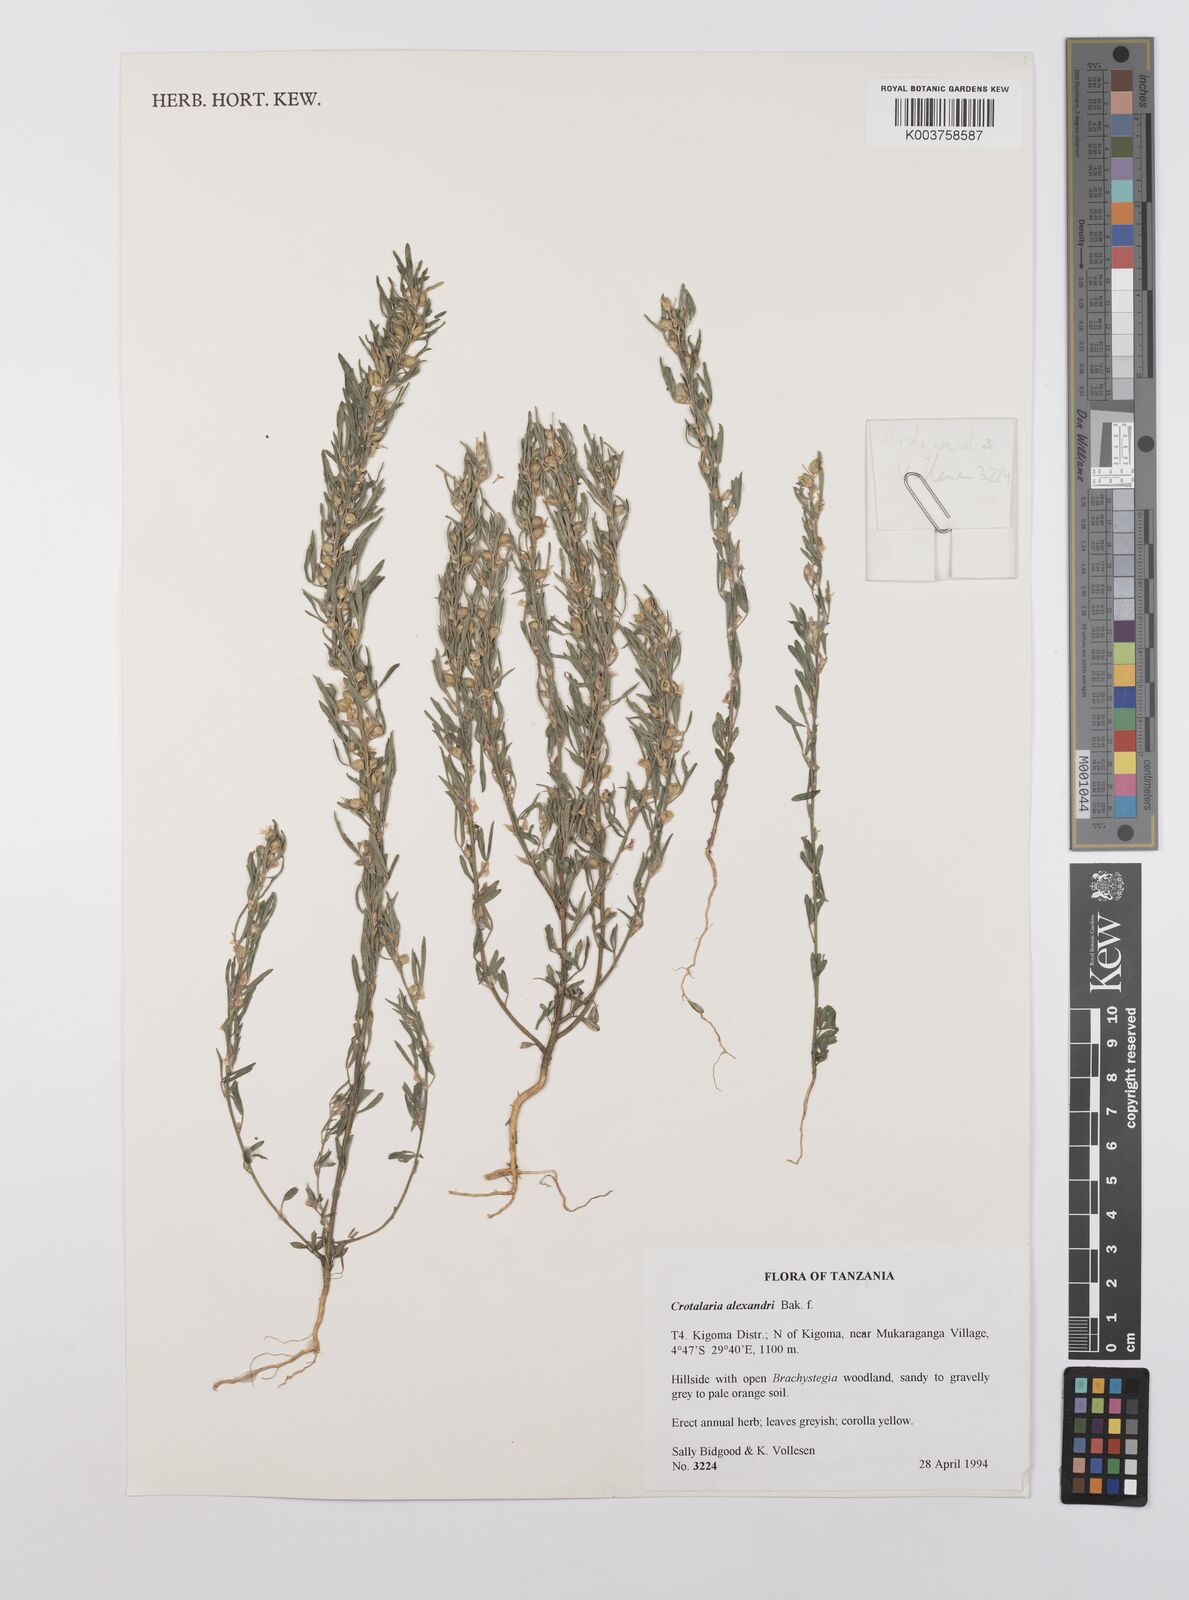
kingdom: Plantae
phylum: Tracheophyta
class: Magnoliopsida
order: Fabales
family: Fabaceae
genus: Crotalaria
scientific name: Crotalaria alexandri
